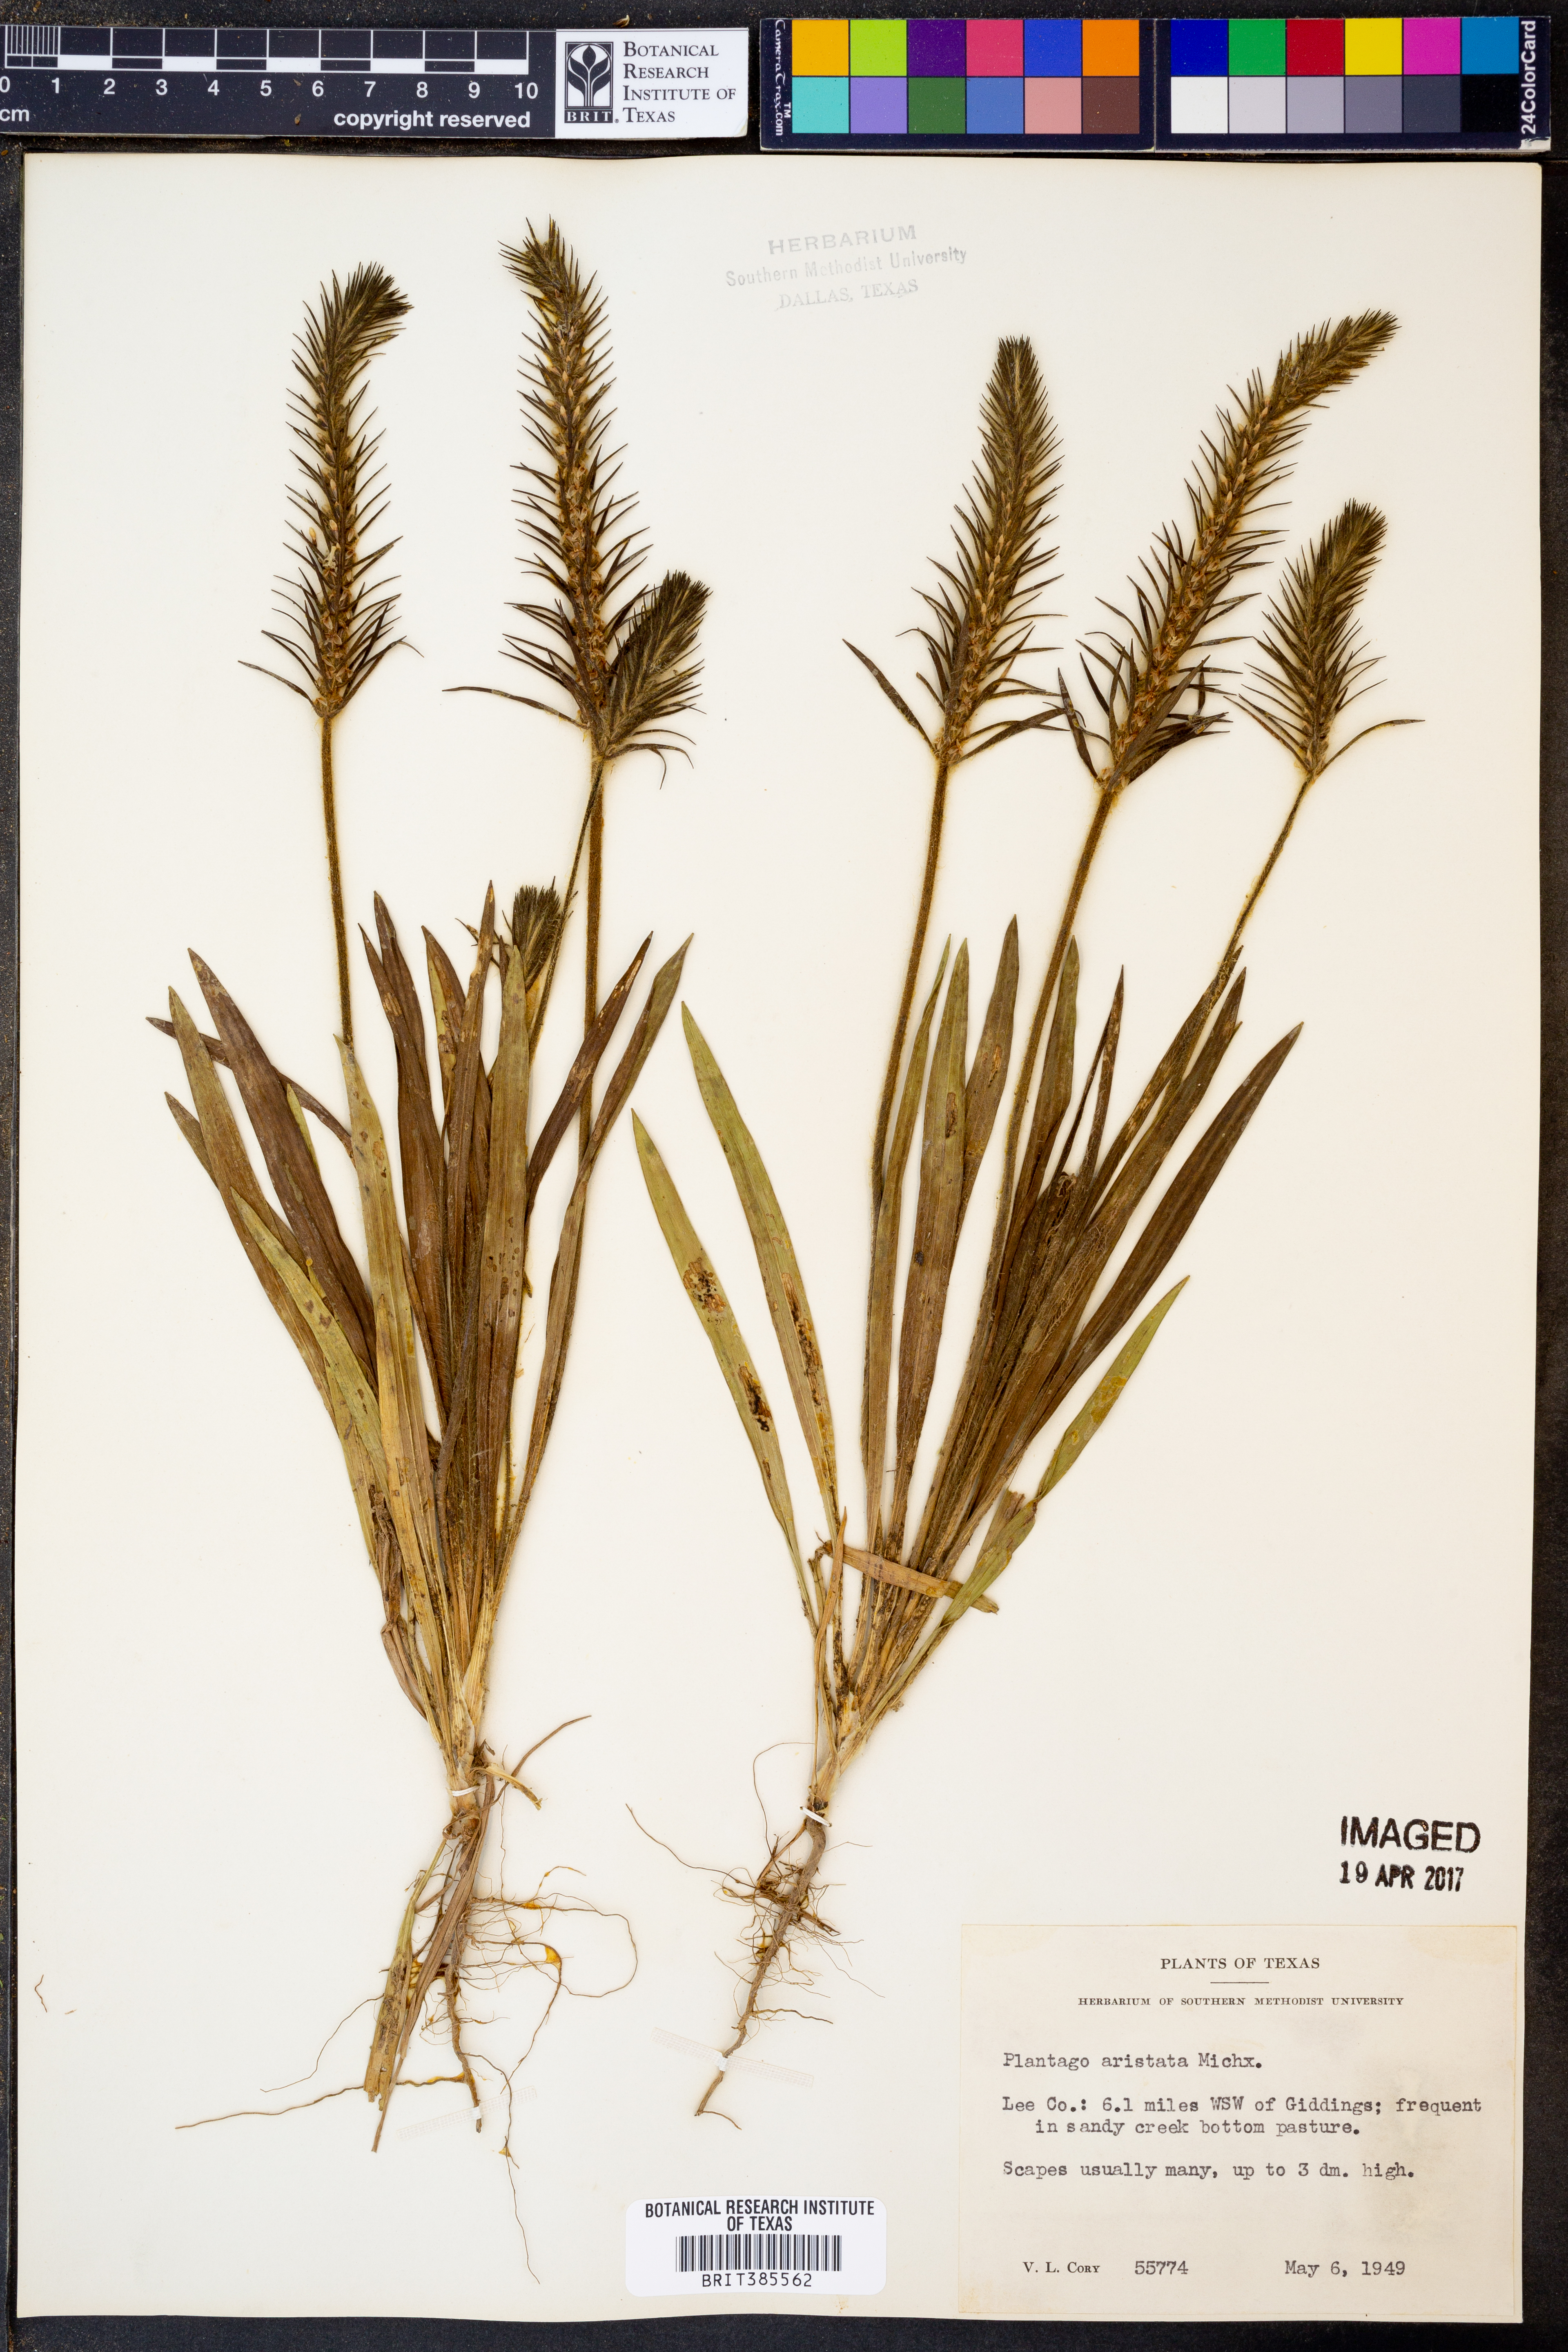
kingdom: Plantae
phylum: Tracheophyta
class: Magnoliopsida
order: Lamiales
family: Plantaginaceae
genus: Plantago
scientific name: Plantago aristata
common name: Bracted plantain
